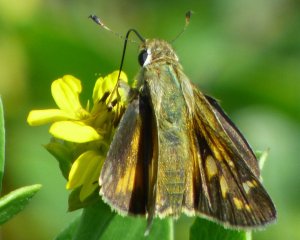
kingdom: Animalia
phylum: Arthropoda
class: Insecta
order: Lepidoptera
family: Hesperiidae
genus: Atalopedes
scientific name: Atalopedes campestris
